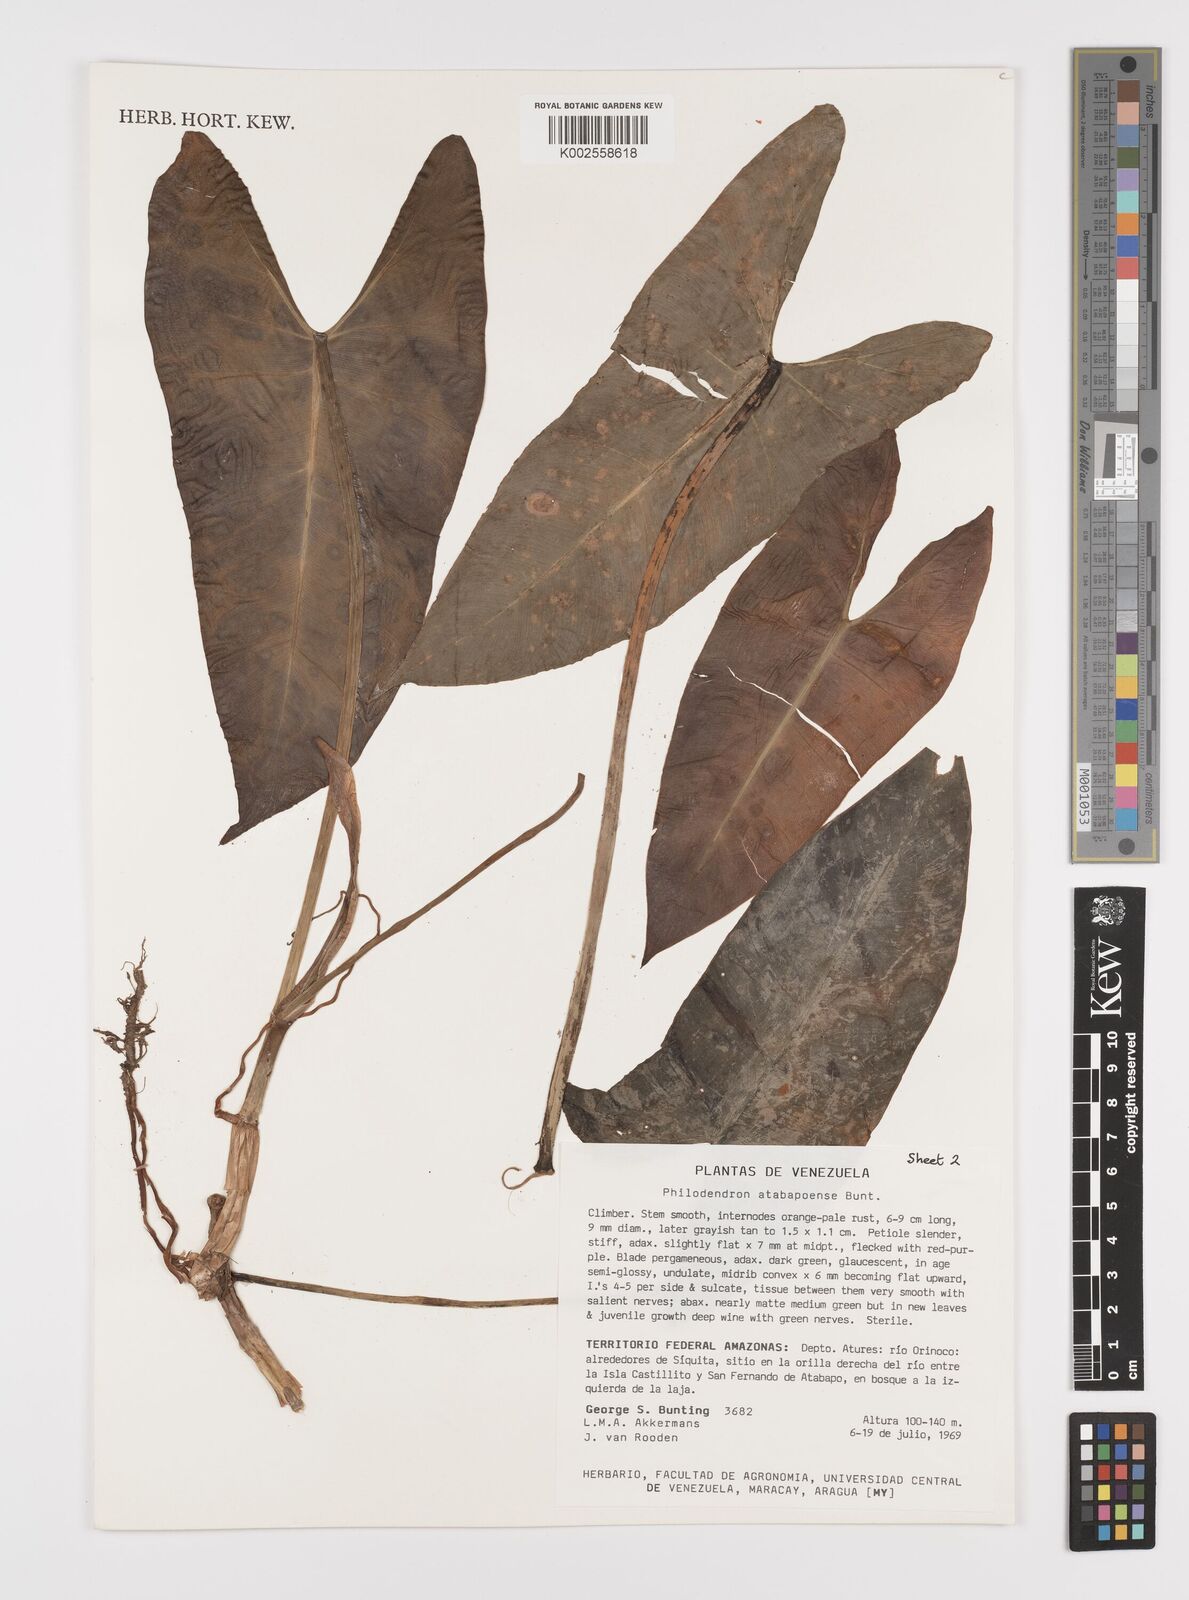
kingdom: Plantae
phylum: Tracheophyta
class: Liliopsida
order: Alismatales
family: Araceae
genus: Philodendron
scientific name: Philodendron atabapoense
